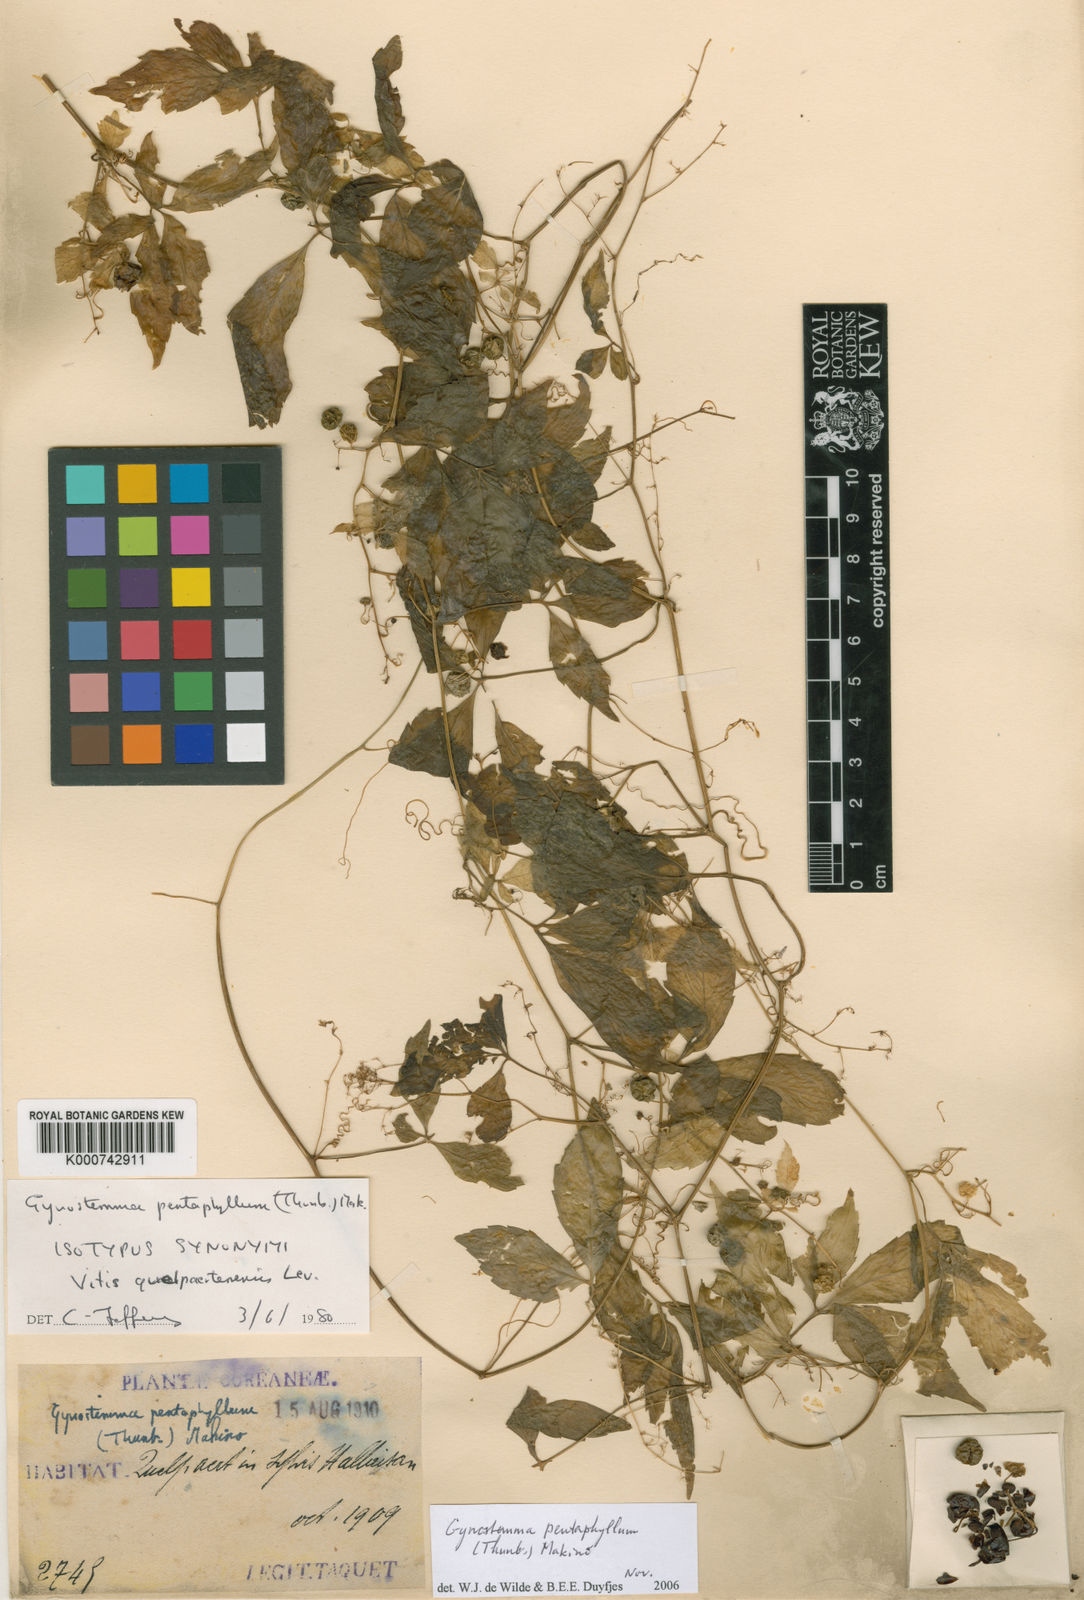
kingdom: Plantae
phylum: Tracheophyta
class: Magnoliopsida
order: Cucurbitales
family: Cucurbitaceae
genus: Gynostemma
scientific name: Gynostemma pentaphyllum
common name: Gynostemma
